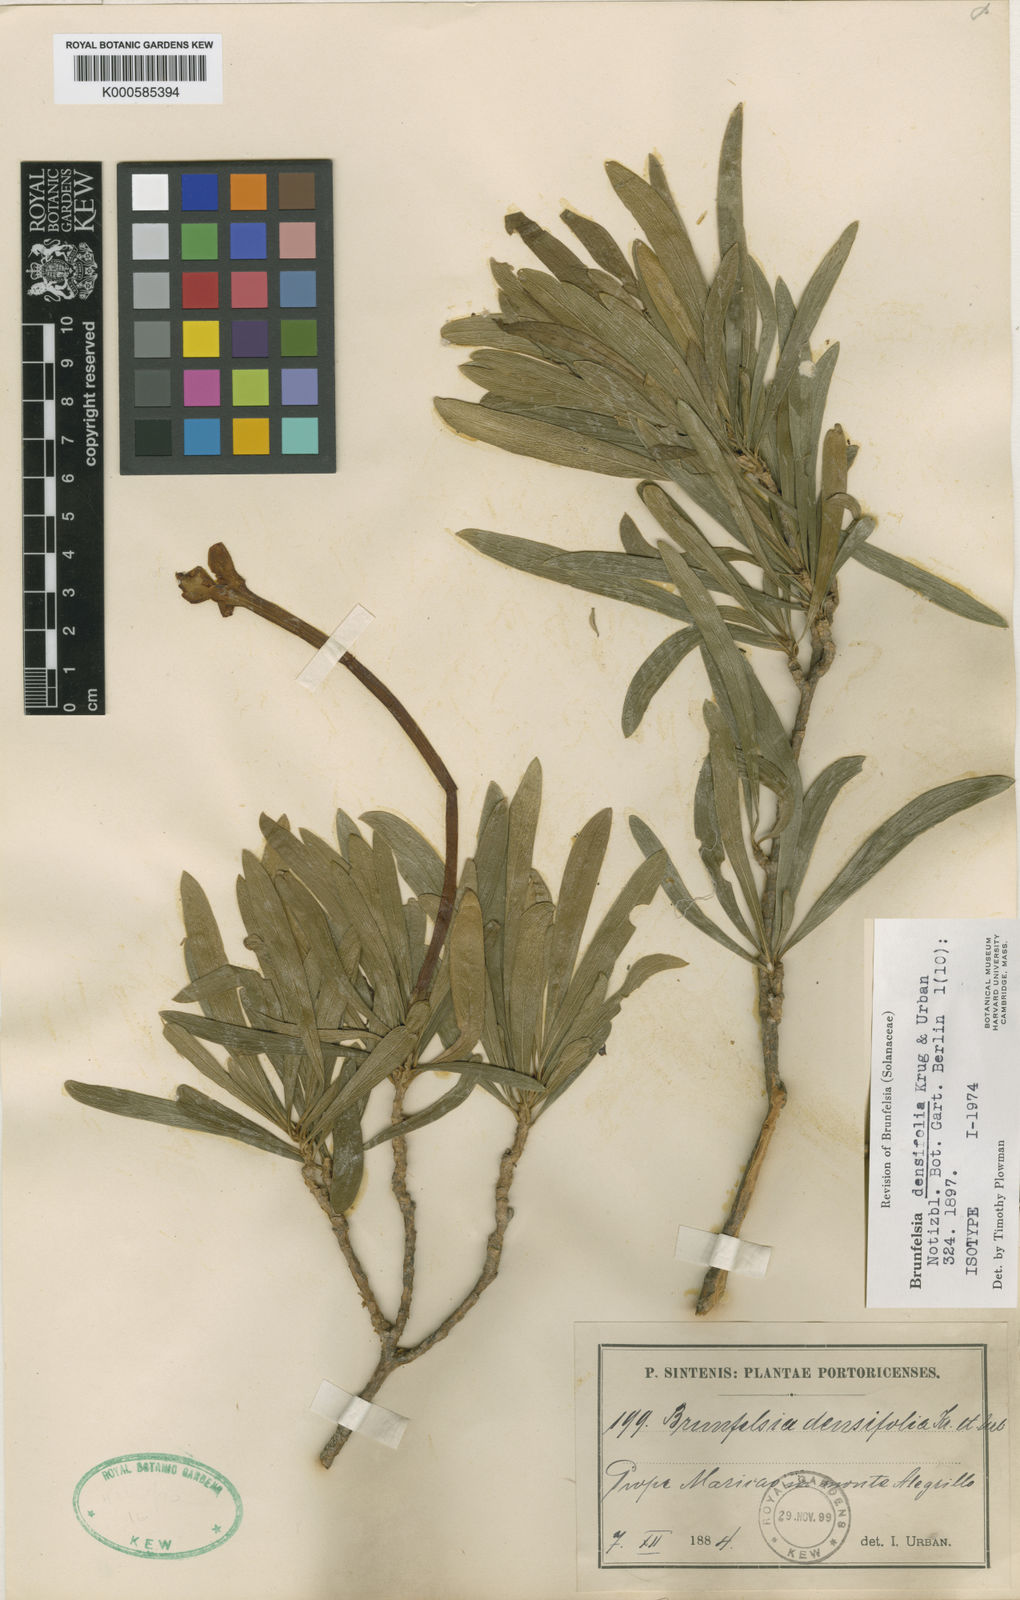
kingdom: Plantae
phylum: Tracheophyta
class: Magnoliopsida
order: Solanales
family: Solanaceae
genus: Brunfelsia
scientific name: Brunfelsia densifolia
